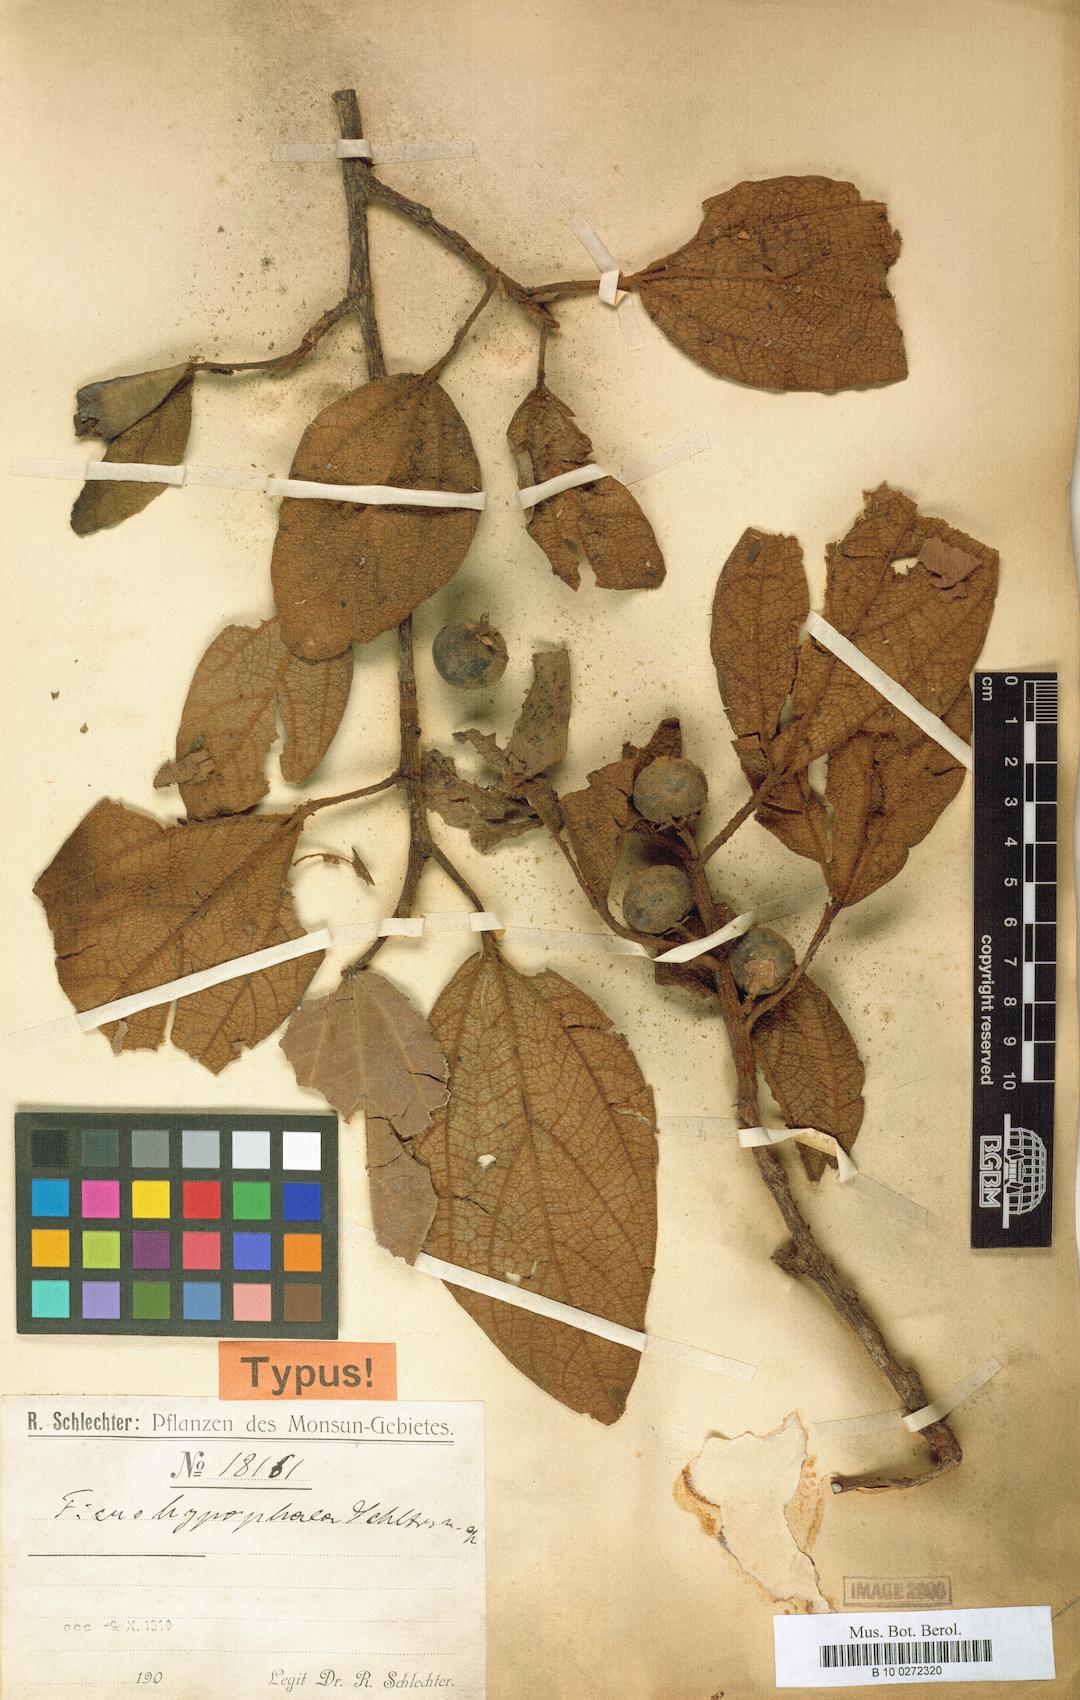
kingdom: Plantae
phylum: Tracheophyta
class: Magnoliopsida
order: Rosales
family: Moraceae
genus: Ficus
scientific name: Ficus hypophaea
